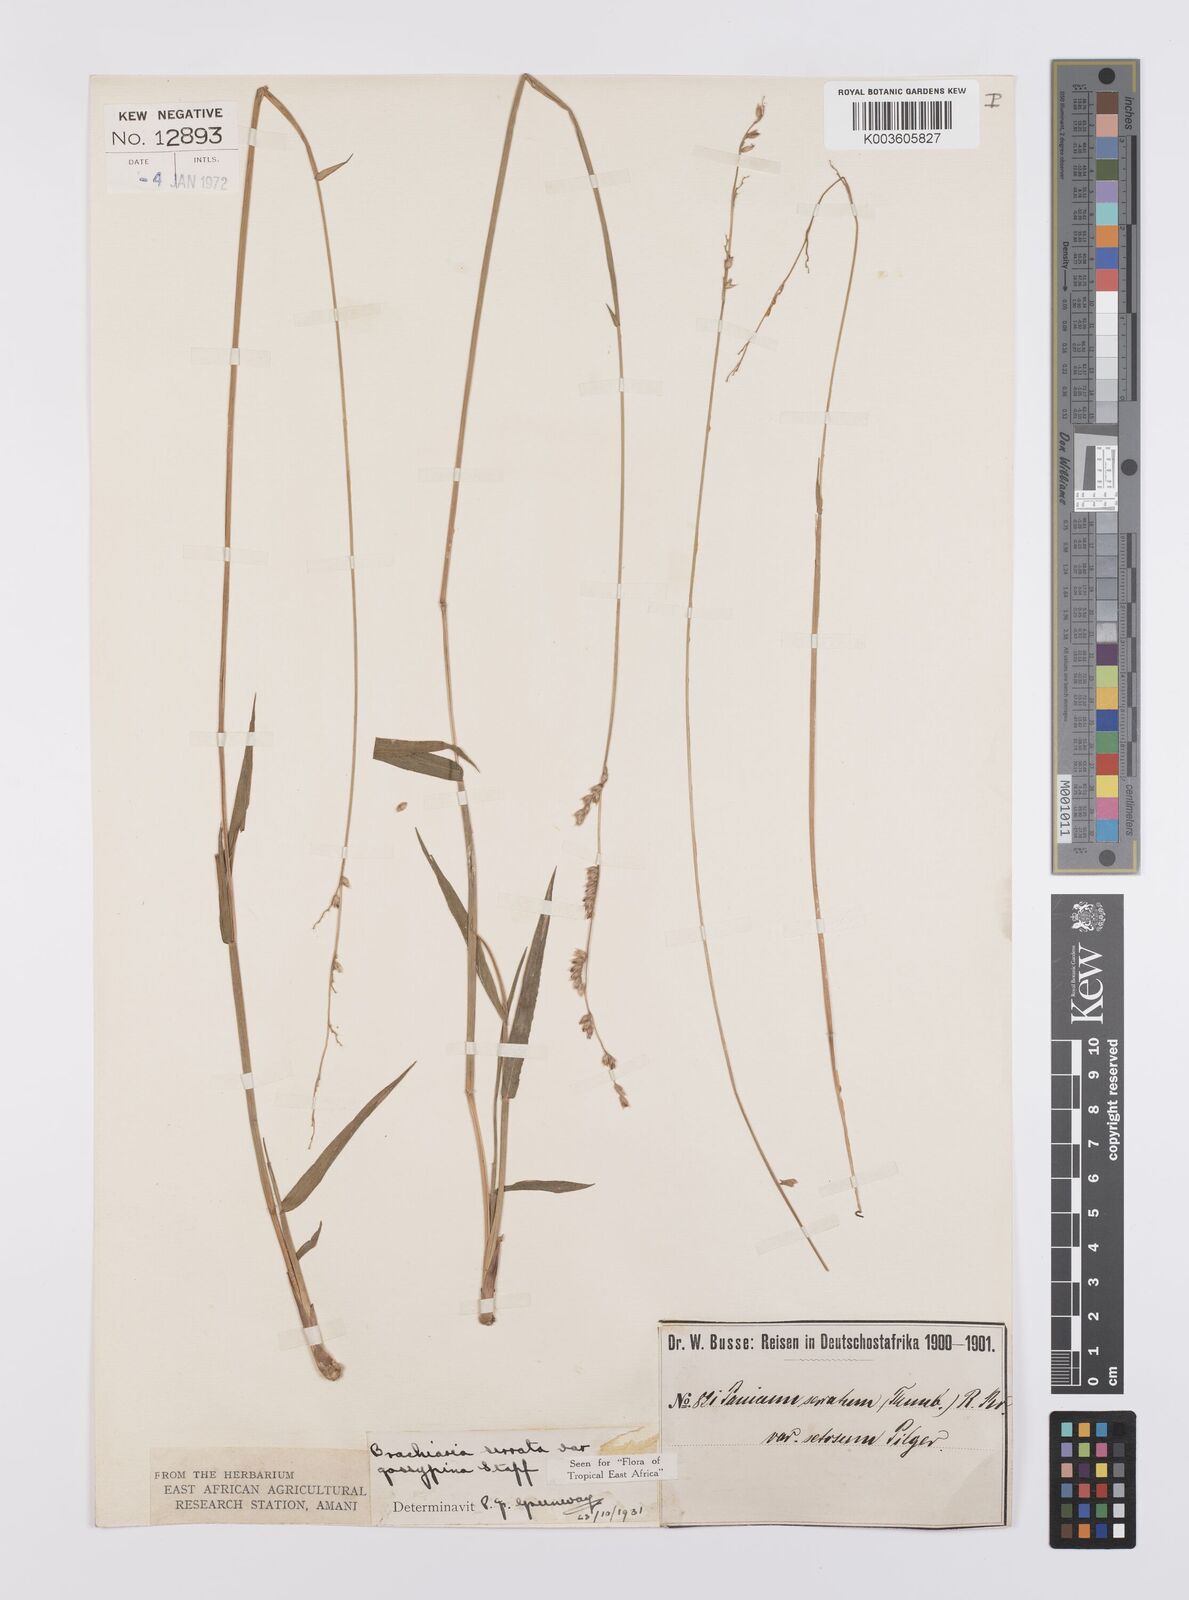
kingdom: Plantae
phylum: Tracheophyta
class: Liliopsida
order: Poales
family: Poaceae
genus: Urochloa
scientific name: Urochloa serrata
